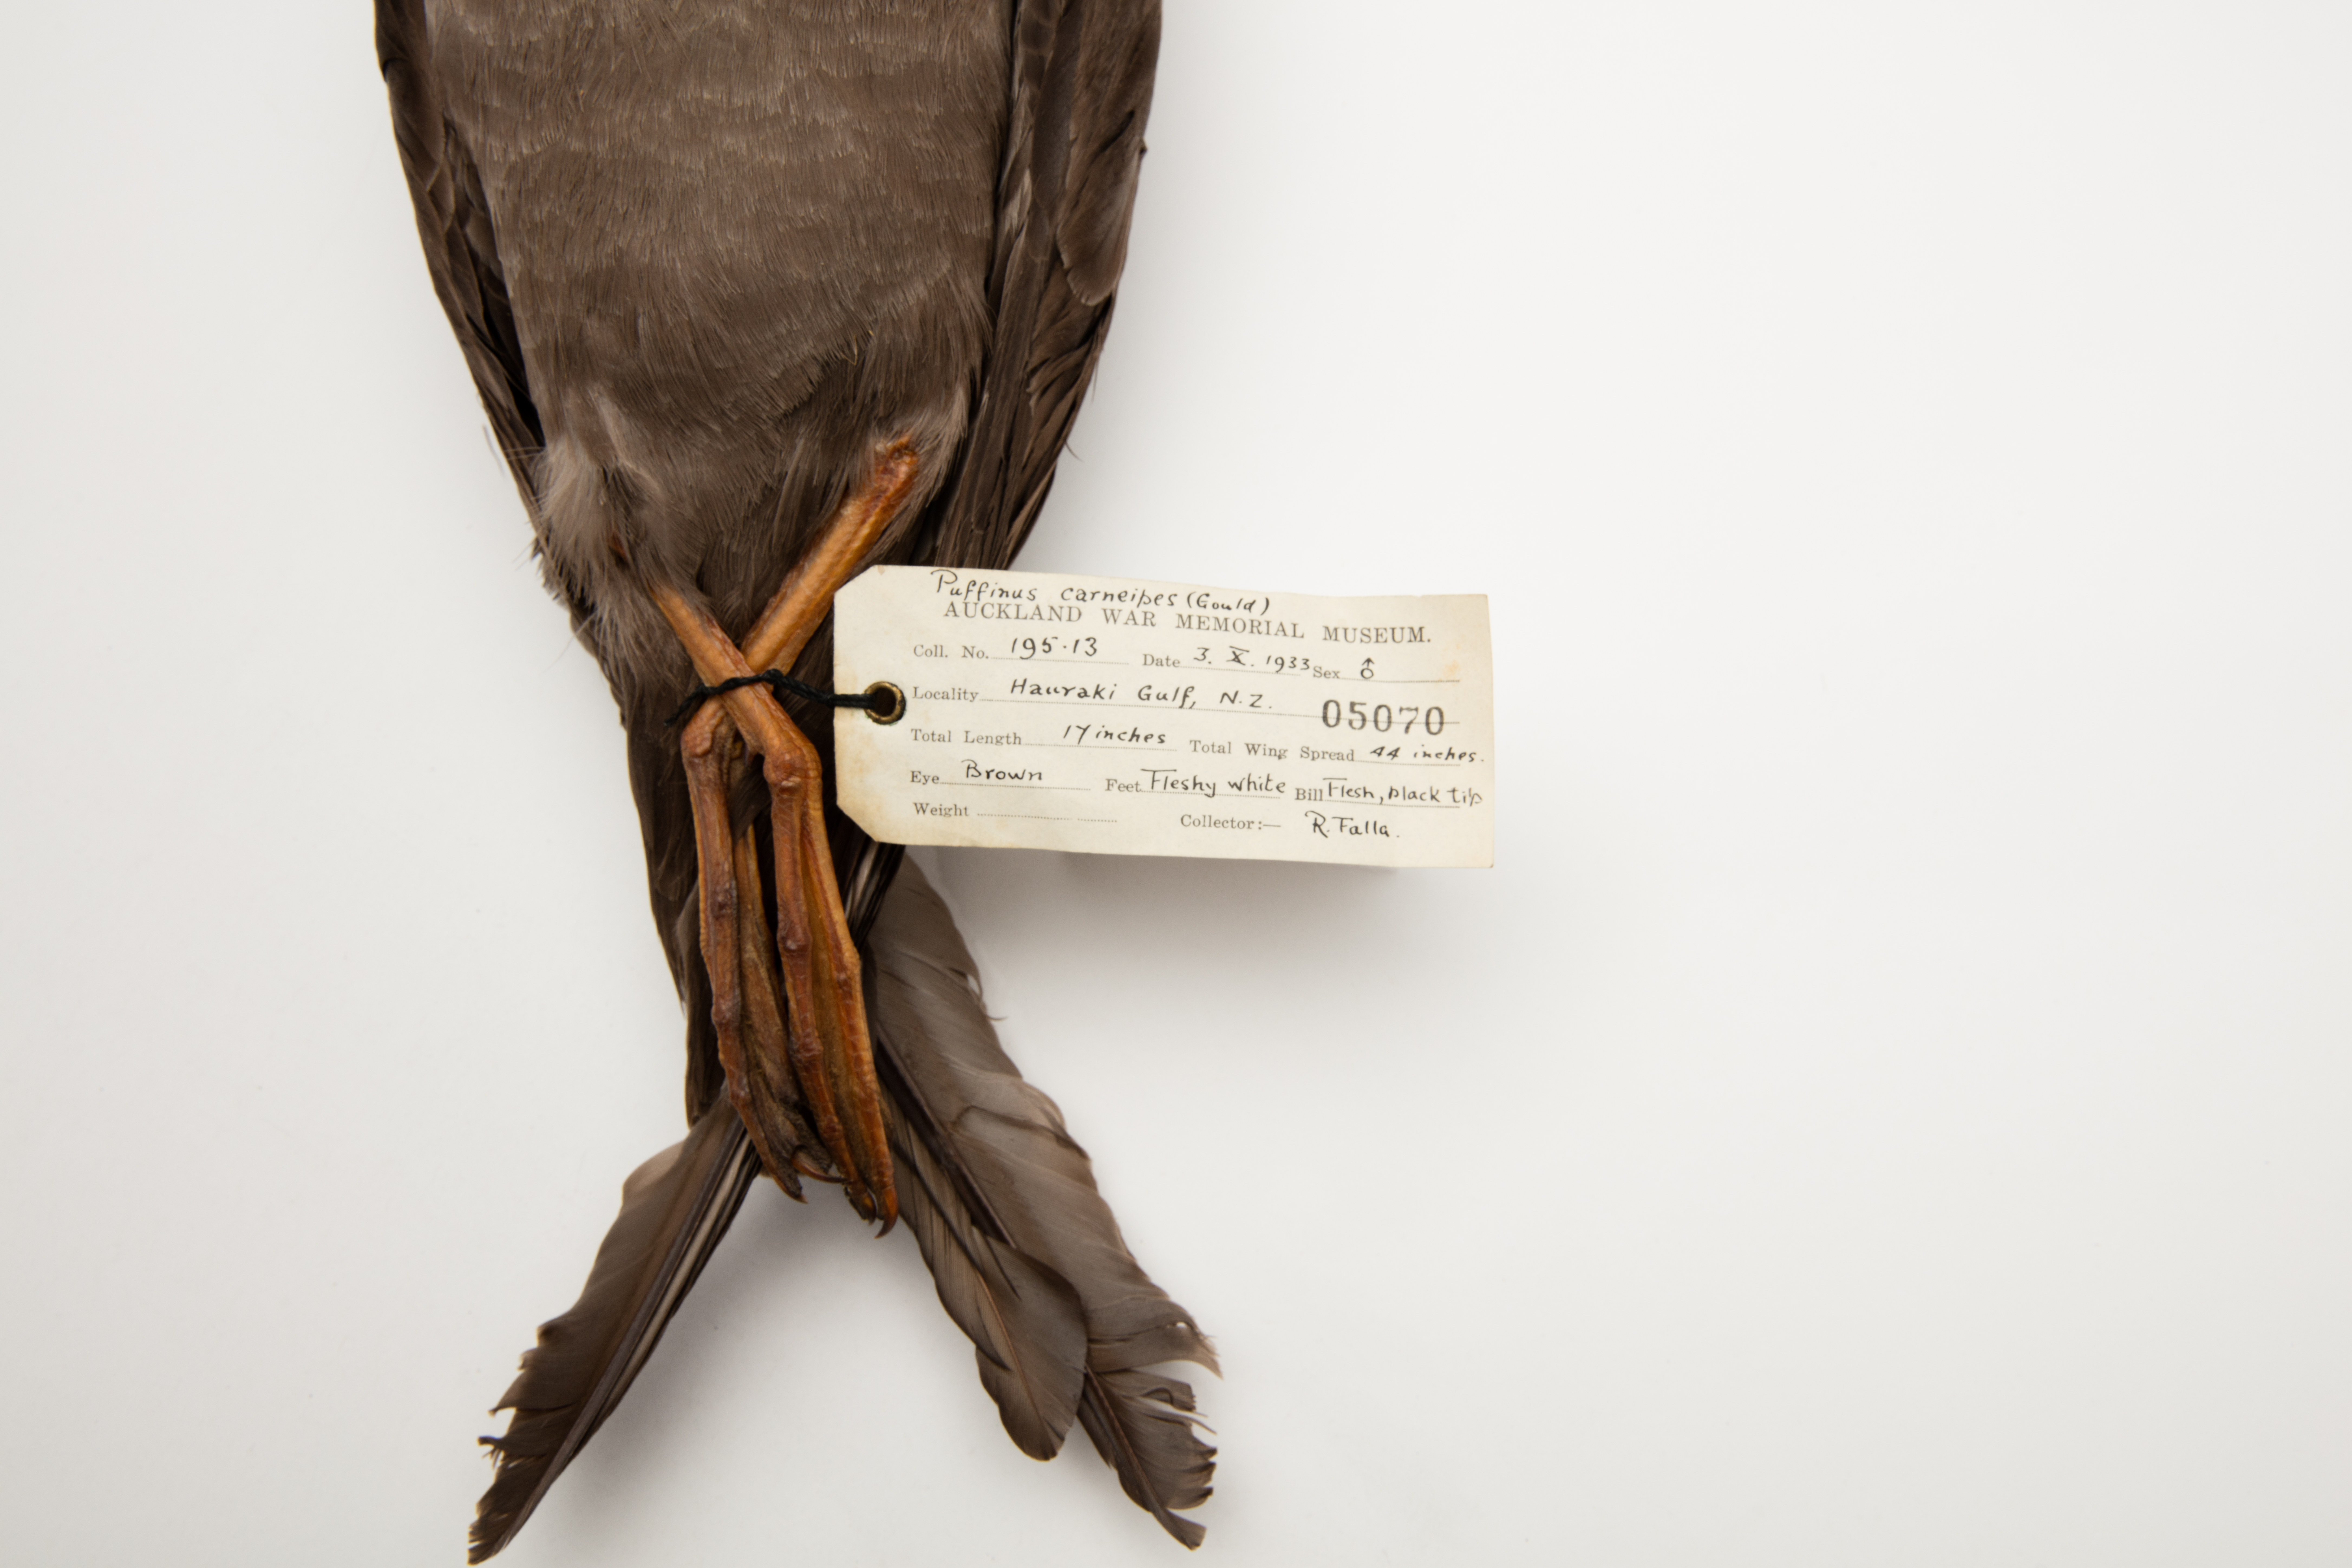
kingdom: Animalia
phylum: Chordata
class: Aves
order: Procellariiformes
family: Procellariidae
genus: Puffinus
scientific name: Puffinus carneipes
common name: Flesh-footed shearwater
